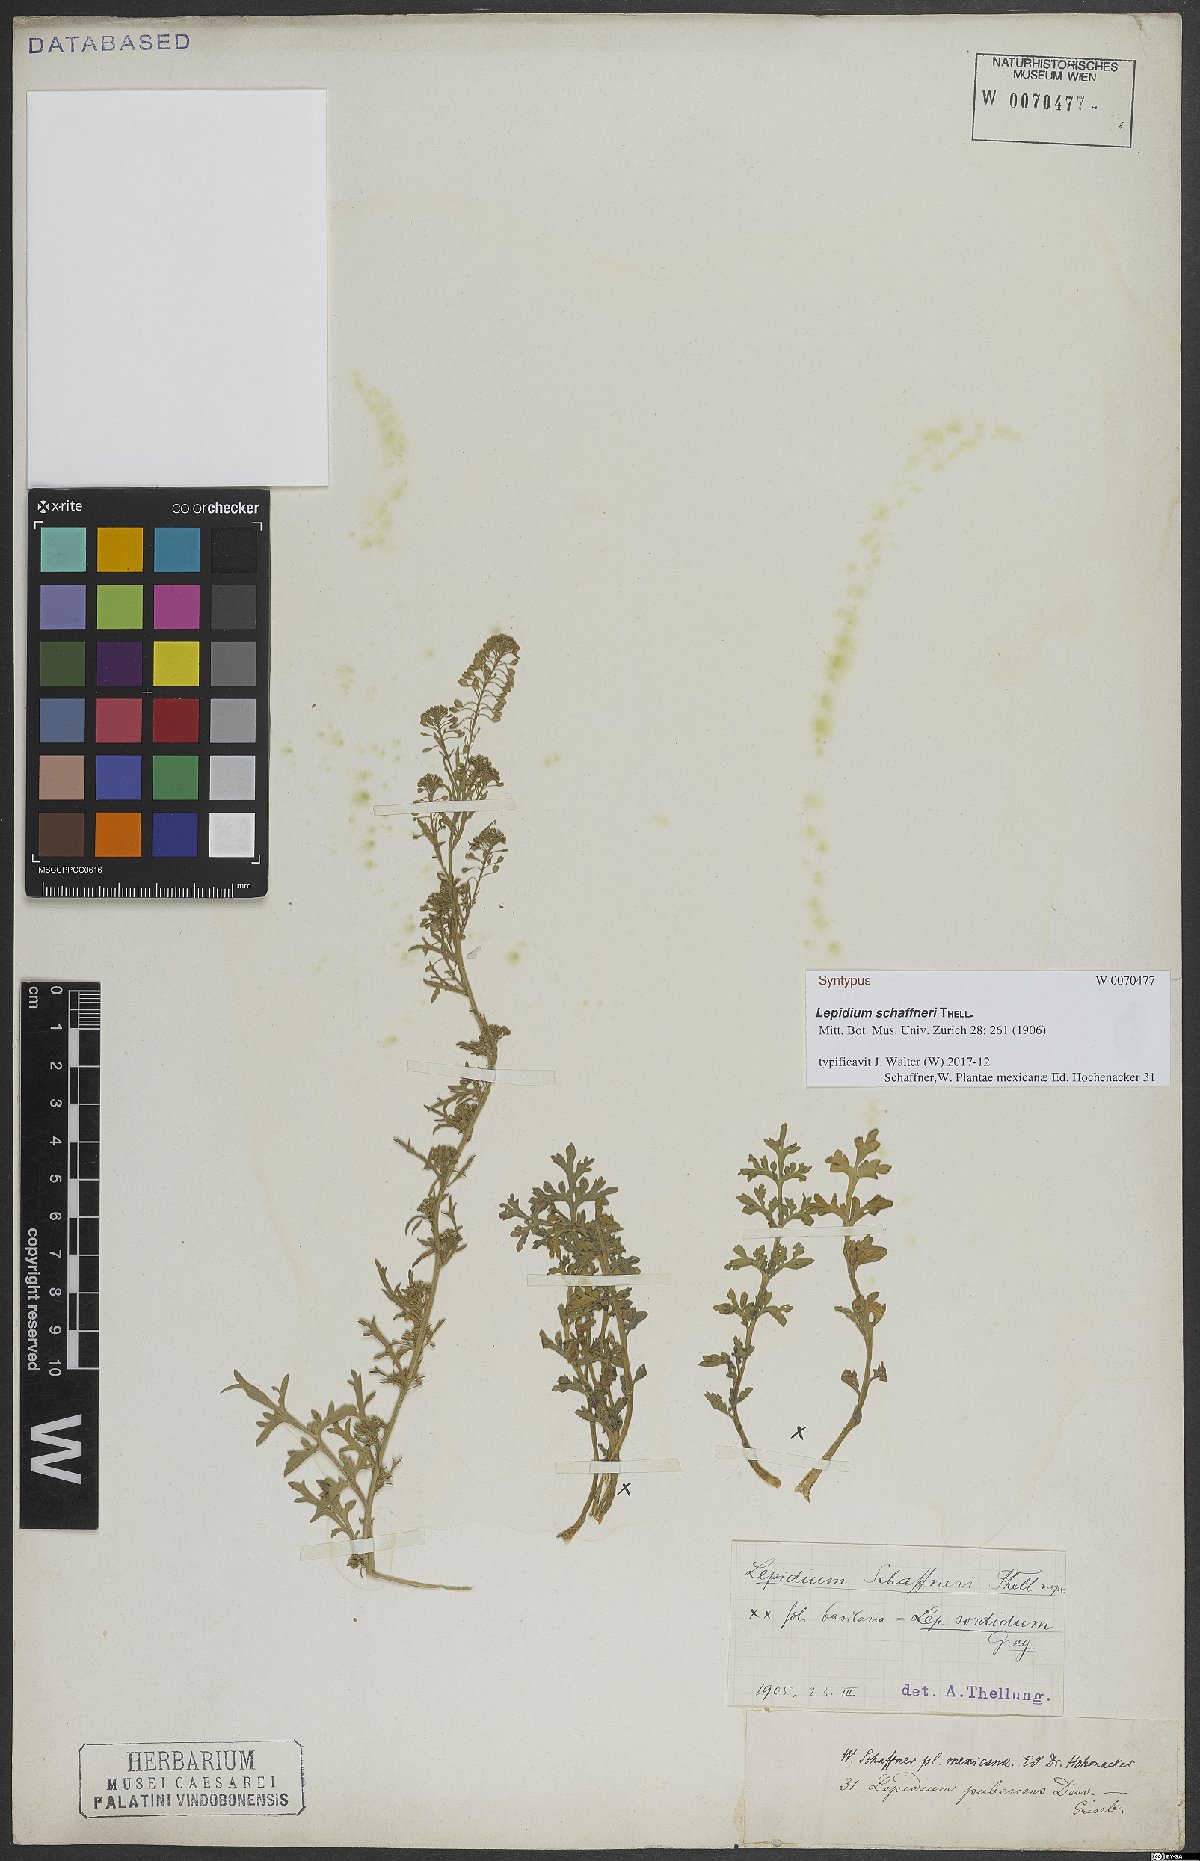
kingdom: Plantae
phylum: Tracheophyta
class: Magnoliopsida
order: Brassicales
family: Brassicaceae
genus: Lepidium
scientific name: Lepidium schaffneri
